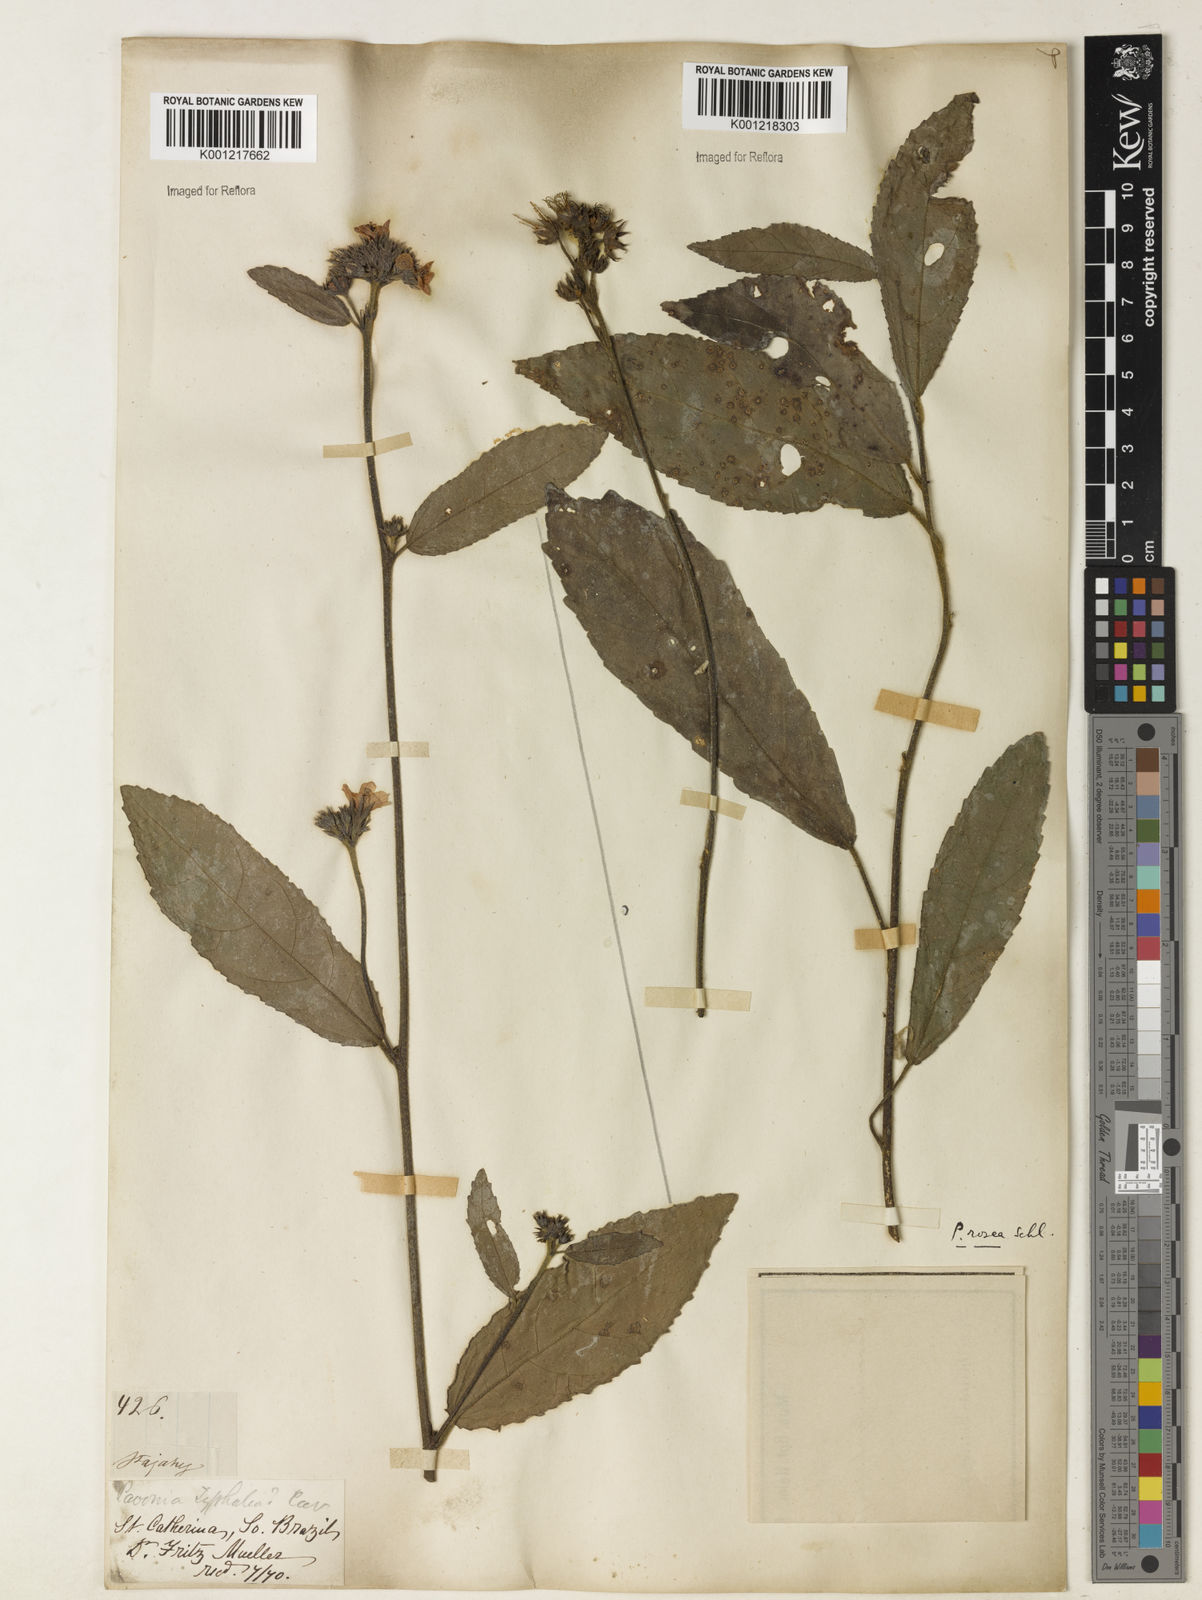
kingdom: Plantae
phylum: Tracheophyta
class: Magnoliopsida
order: Malvales
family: Malvaceae
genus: Pavonia
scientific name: Pavonia schiedeana
